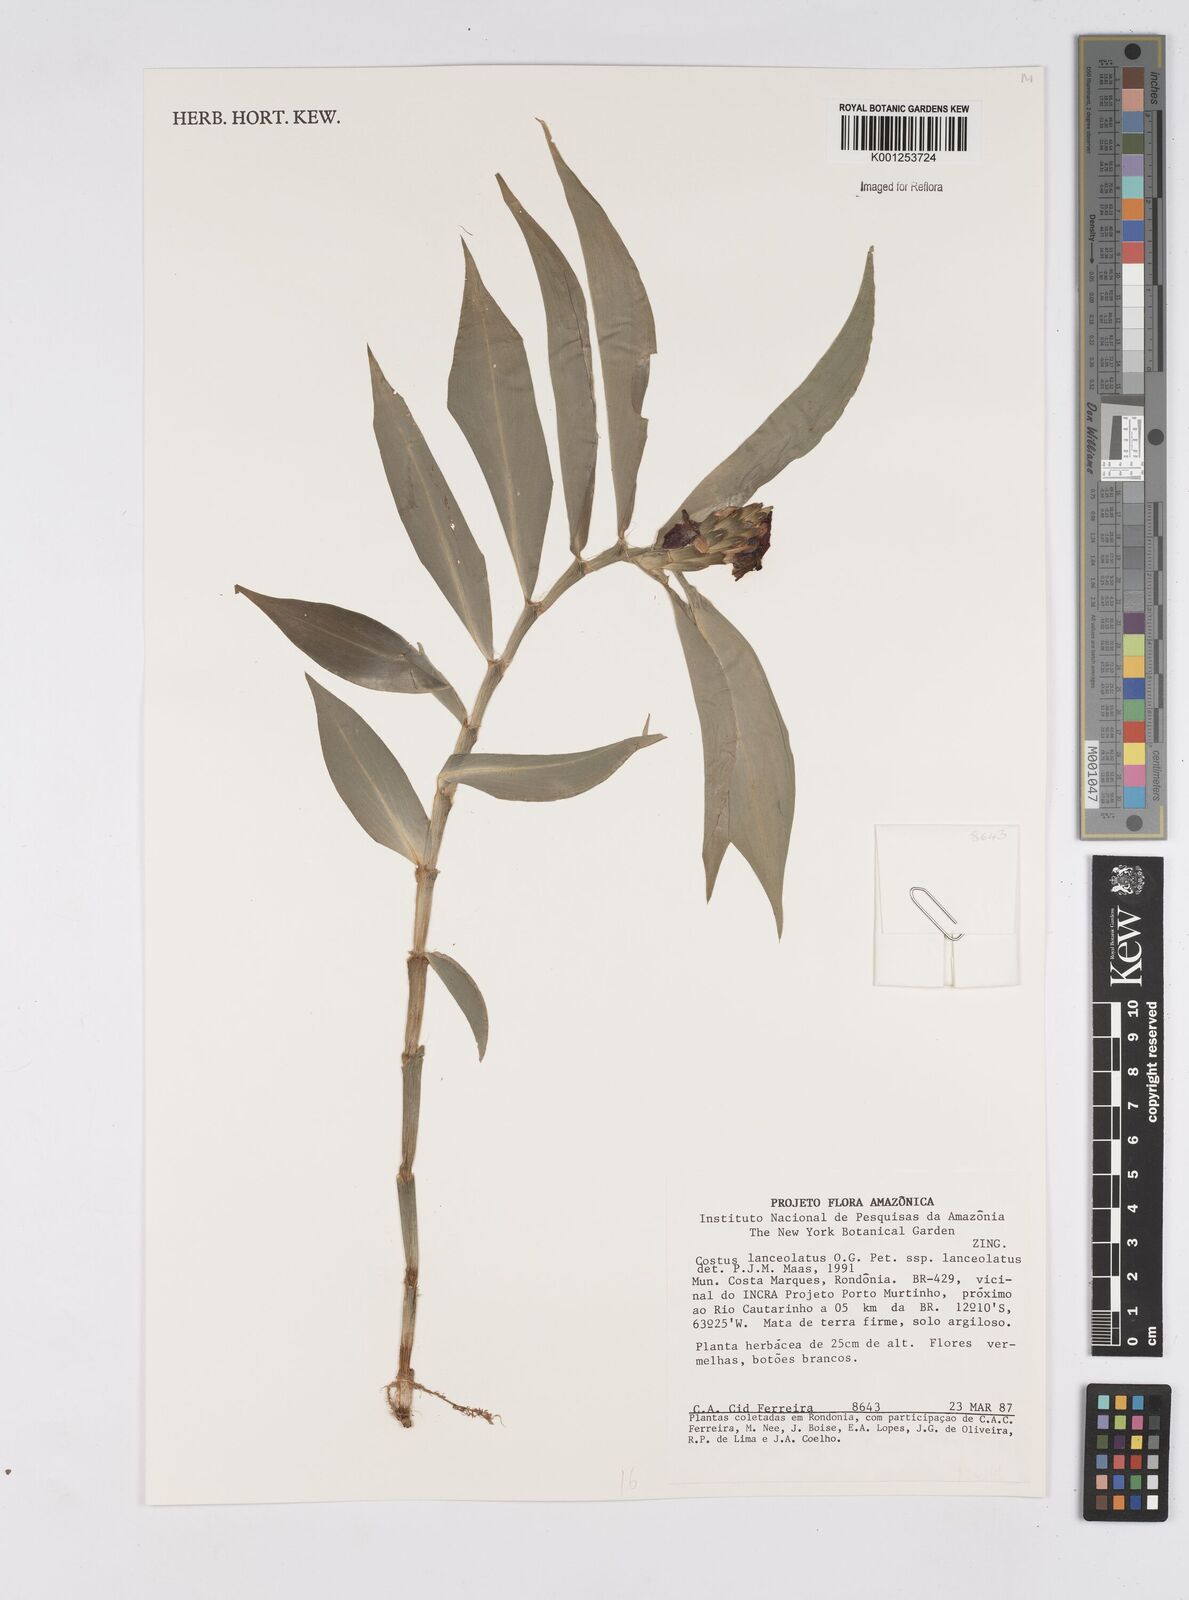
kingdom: Plantae
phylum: Tracheophyta
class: Liliopsida
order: Zingiberales
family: Costaceae
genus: Chamaecostus
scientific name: Chamaecostus lanceolatus
